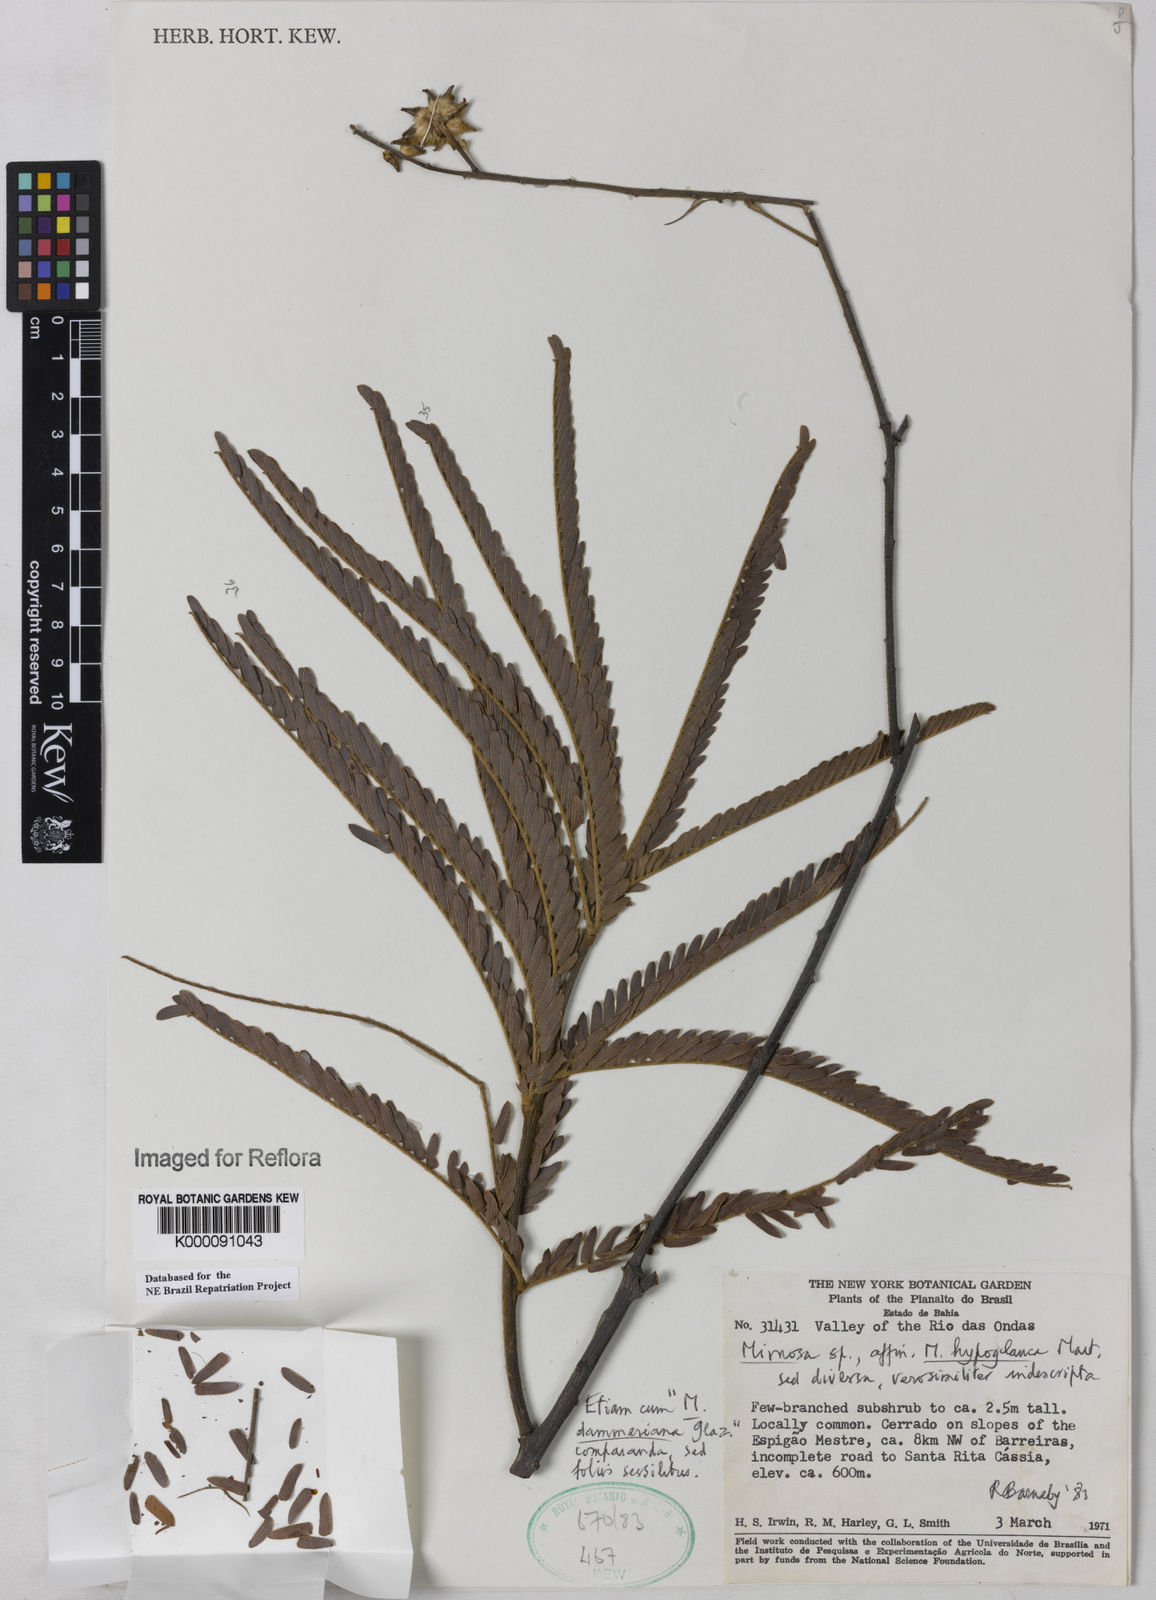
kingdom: Plantae
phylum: Tracheophyta
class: Magnoliopsida
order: Fabales
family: Fabaceae
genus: Mimosa
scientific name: Mimosa hypoglauca
